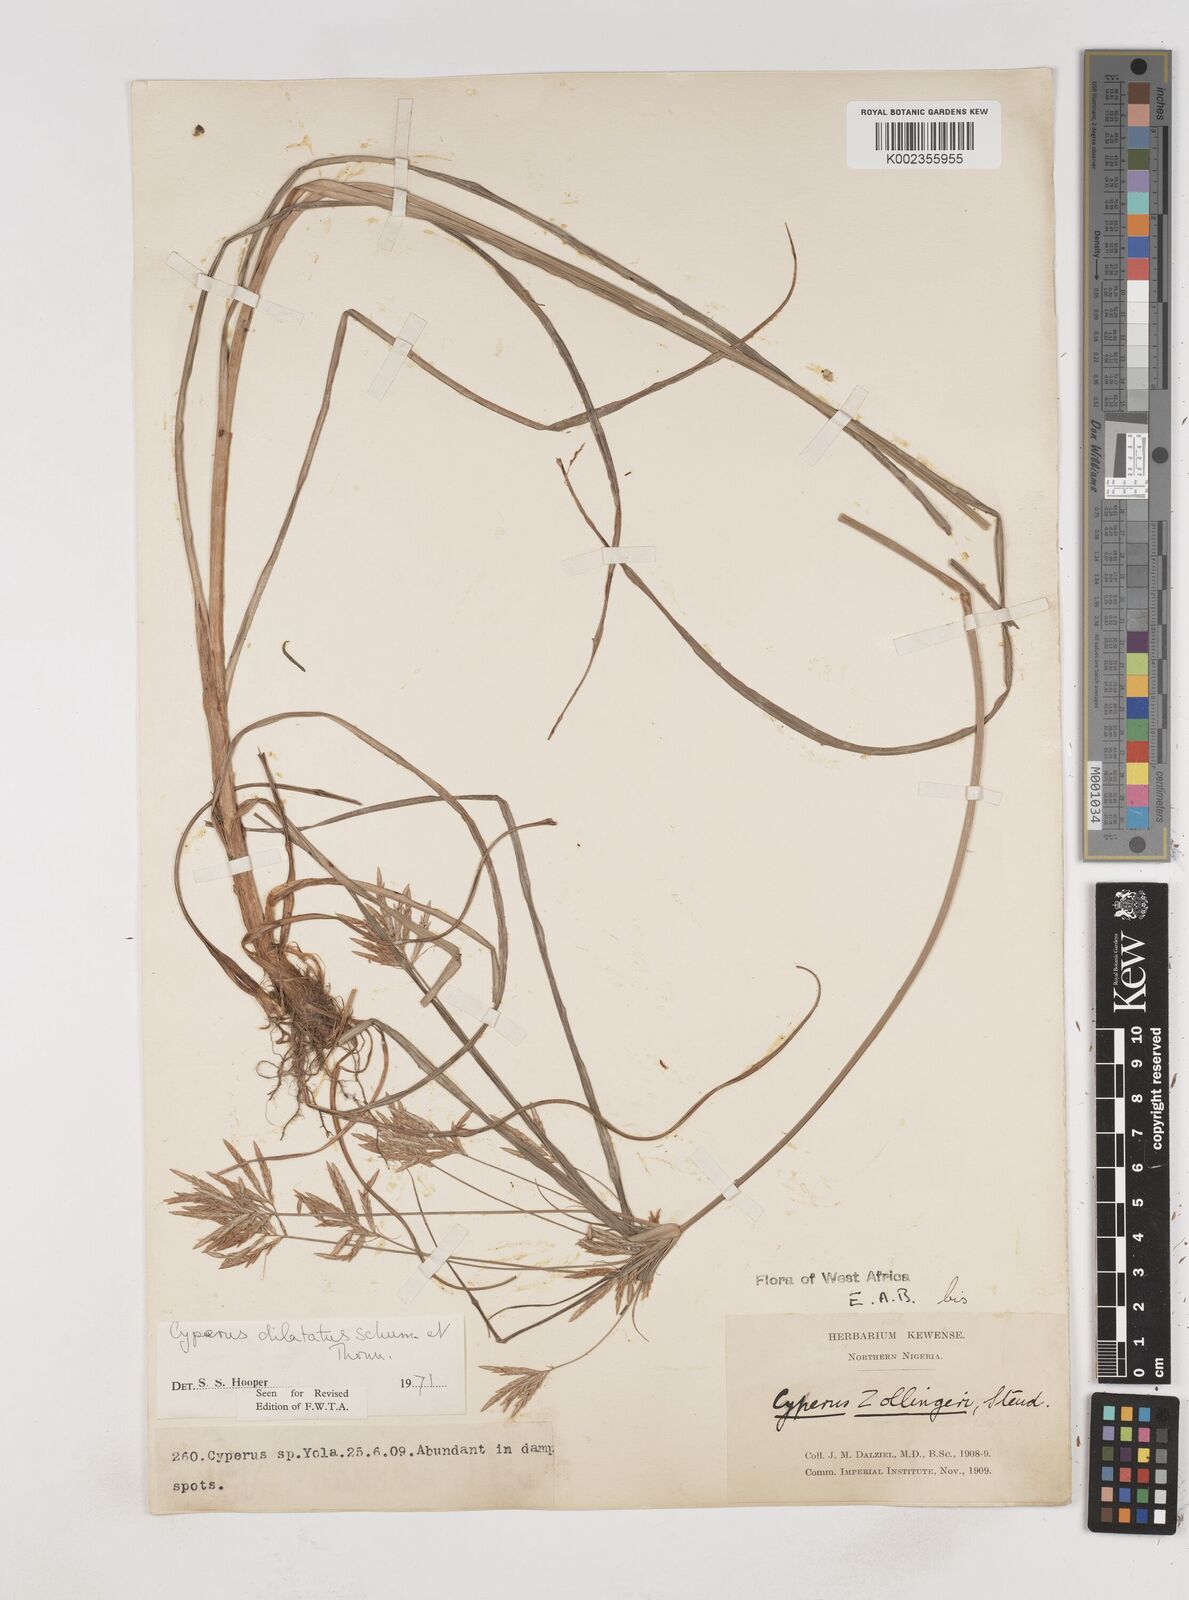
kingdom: Plantae
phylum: Tracheophyta
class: Liliopsida
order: Poales
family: Cyperaceae
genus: Cyperus
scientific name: Cyperus dilatatus
